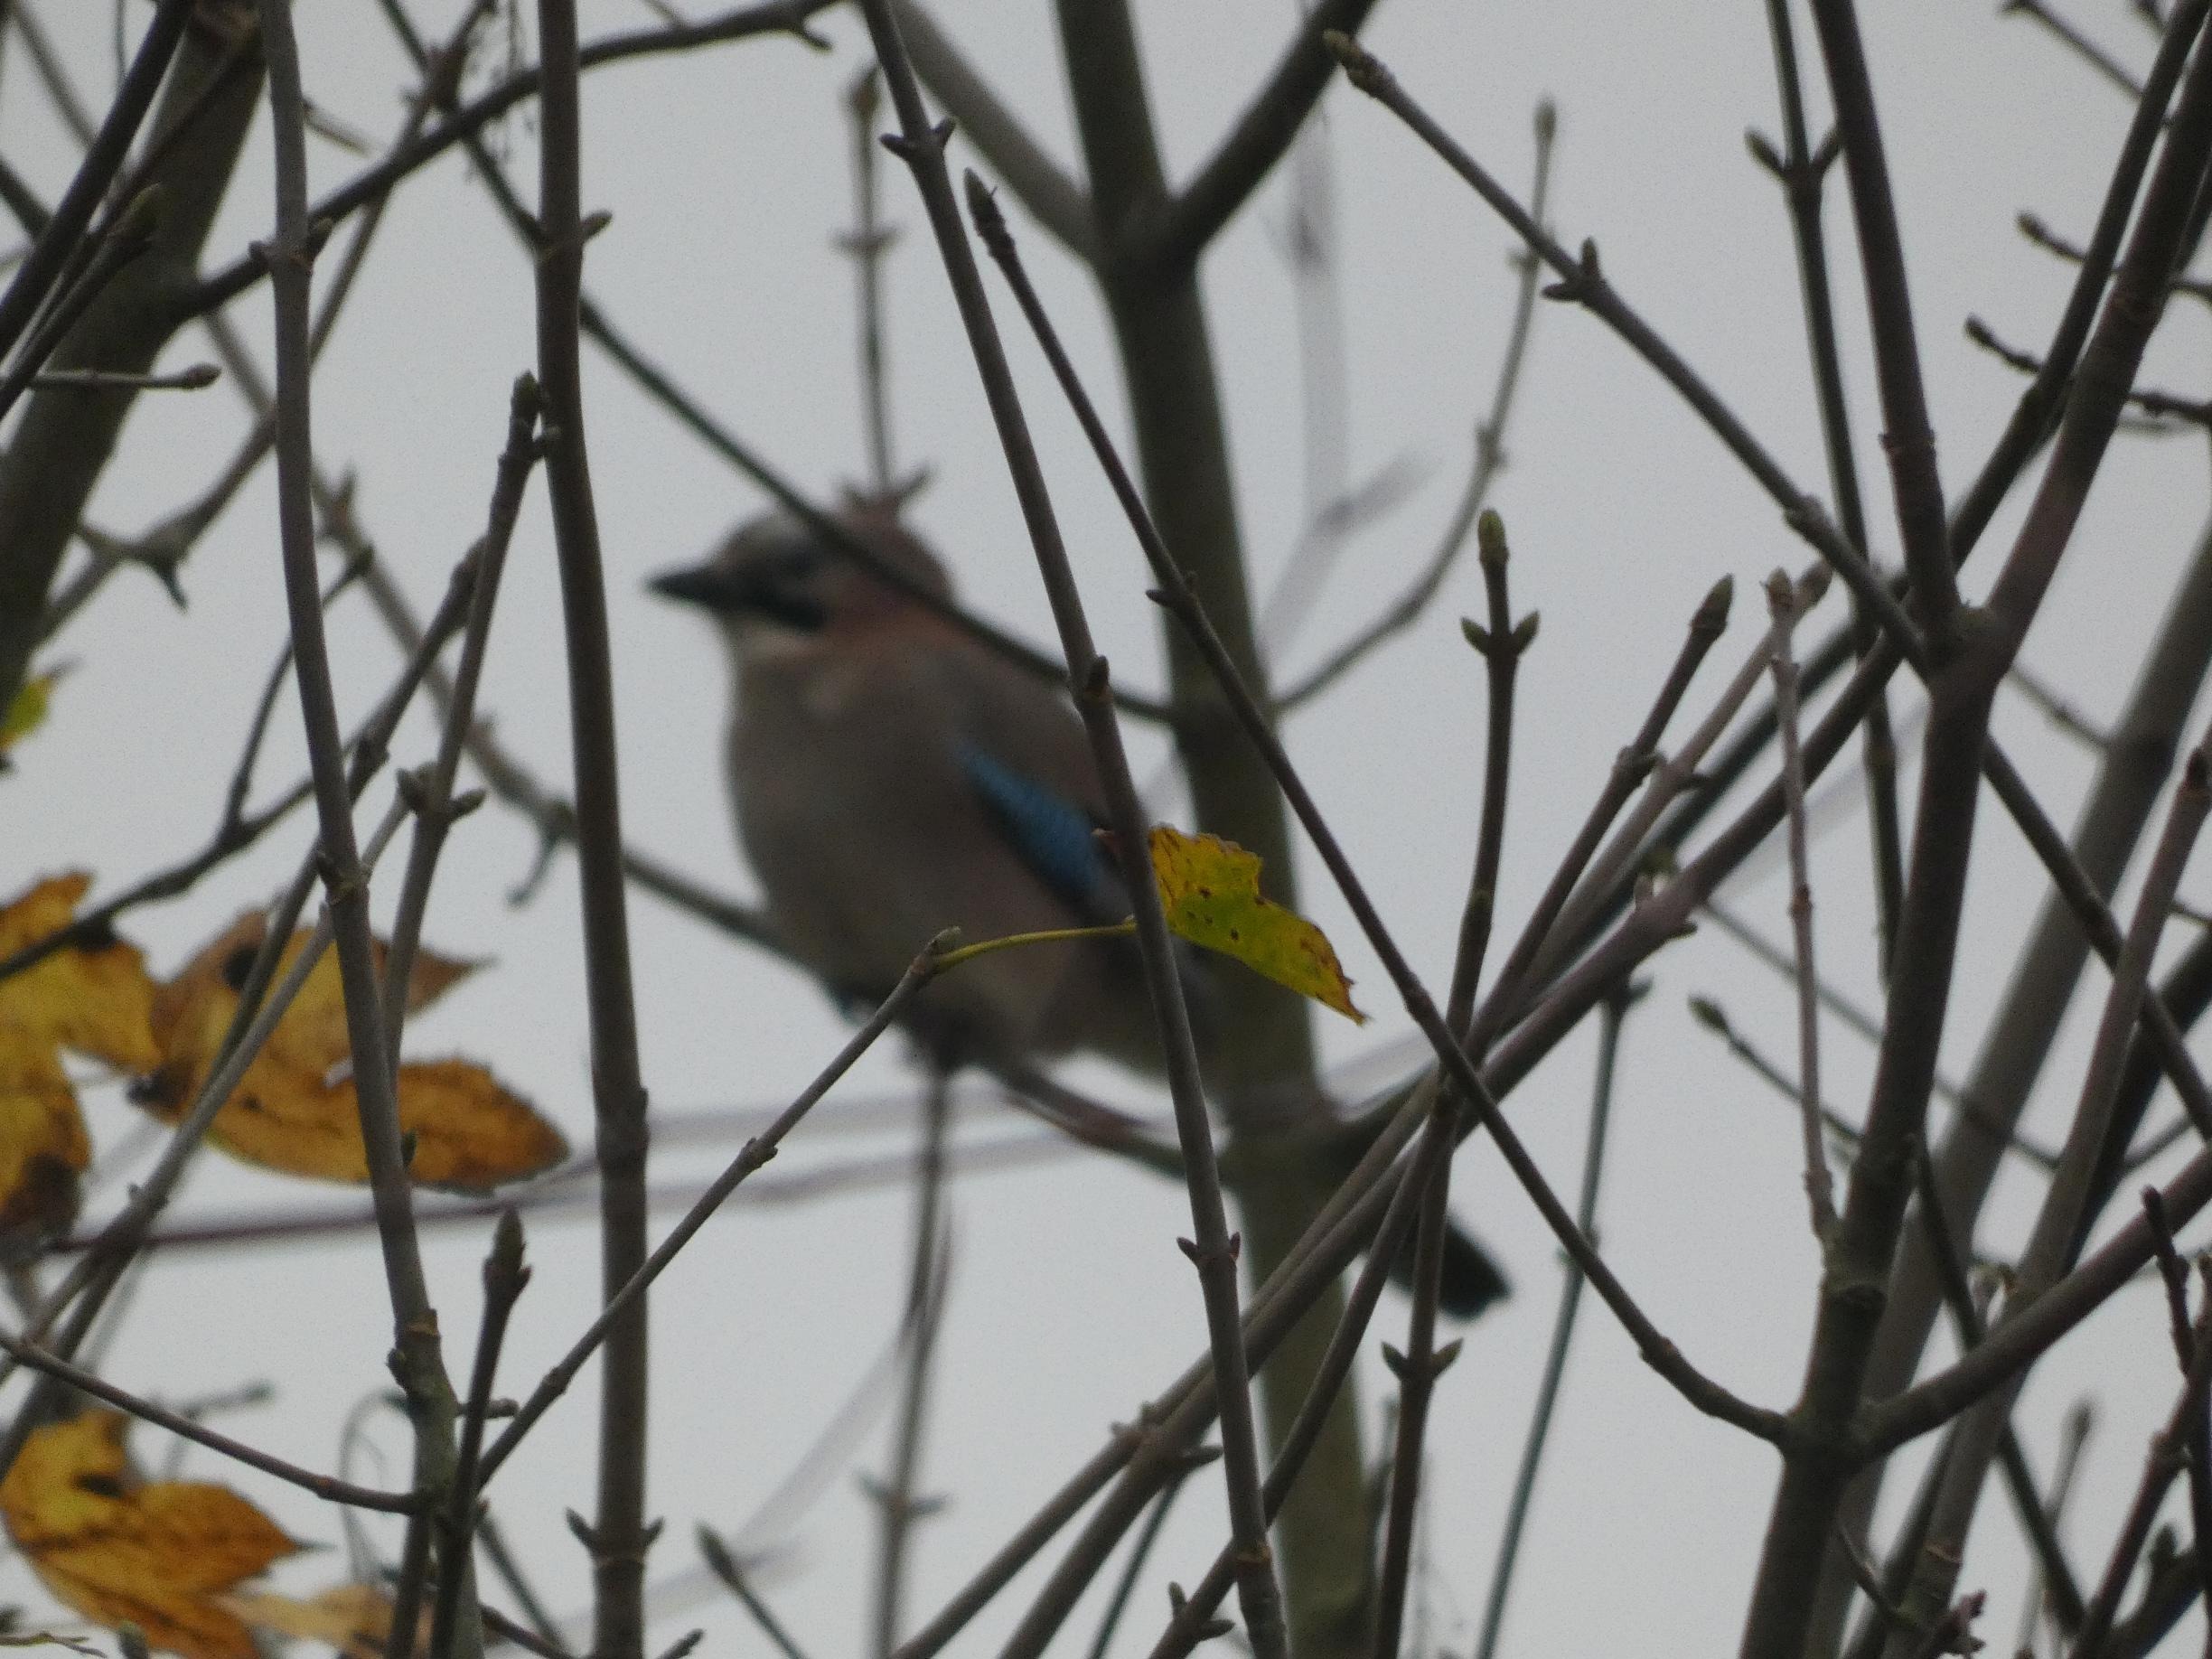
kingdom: Animalia
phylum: Chordata
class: Aves
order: Passeriformes
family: Corvidae
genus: Garrulus
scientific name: Garrulus glandarius
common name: Skovskade
